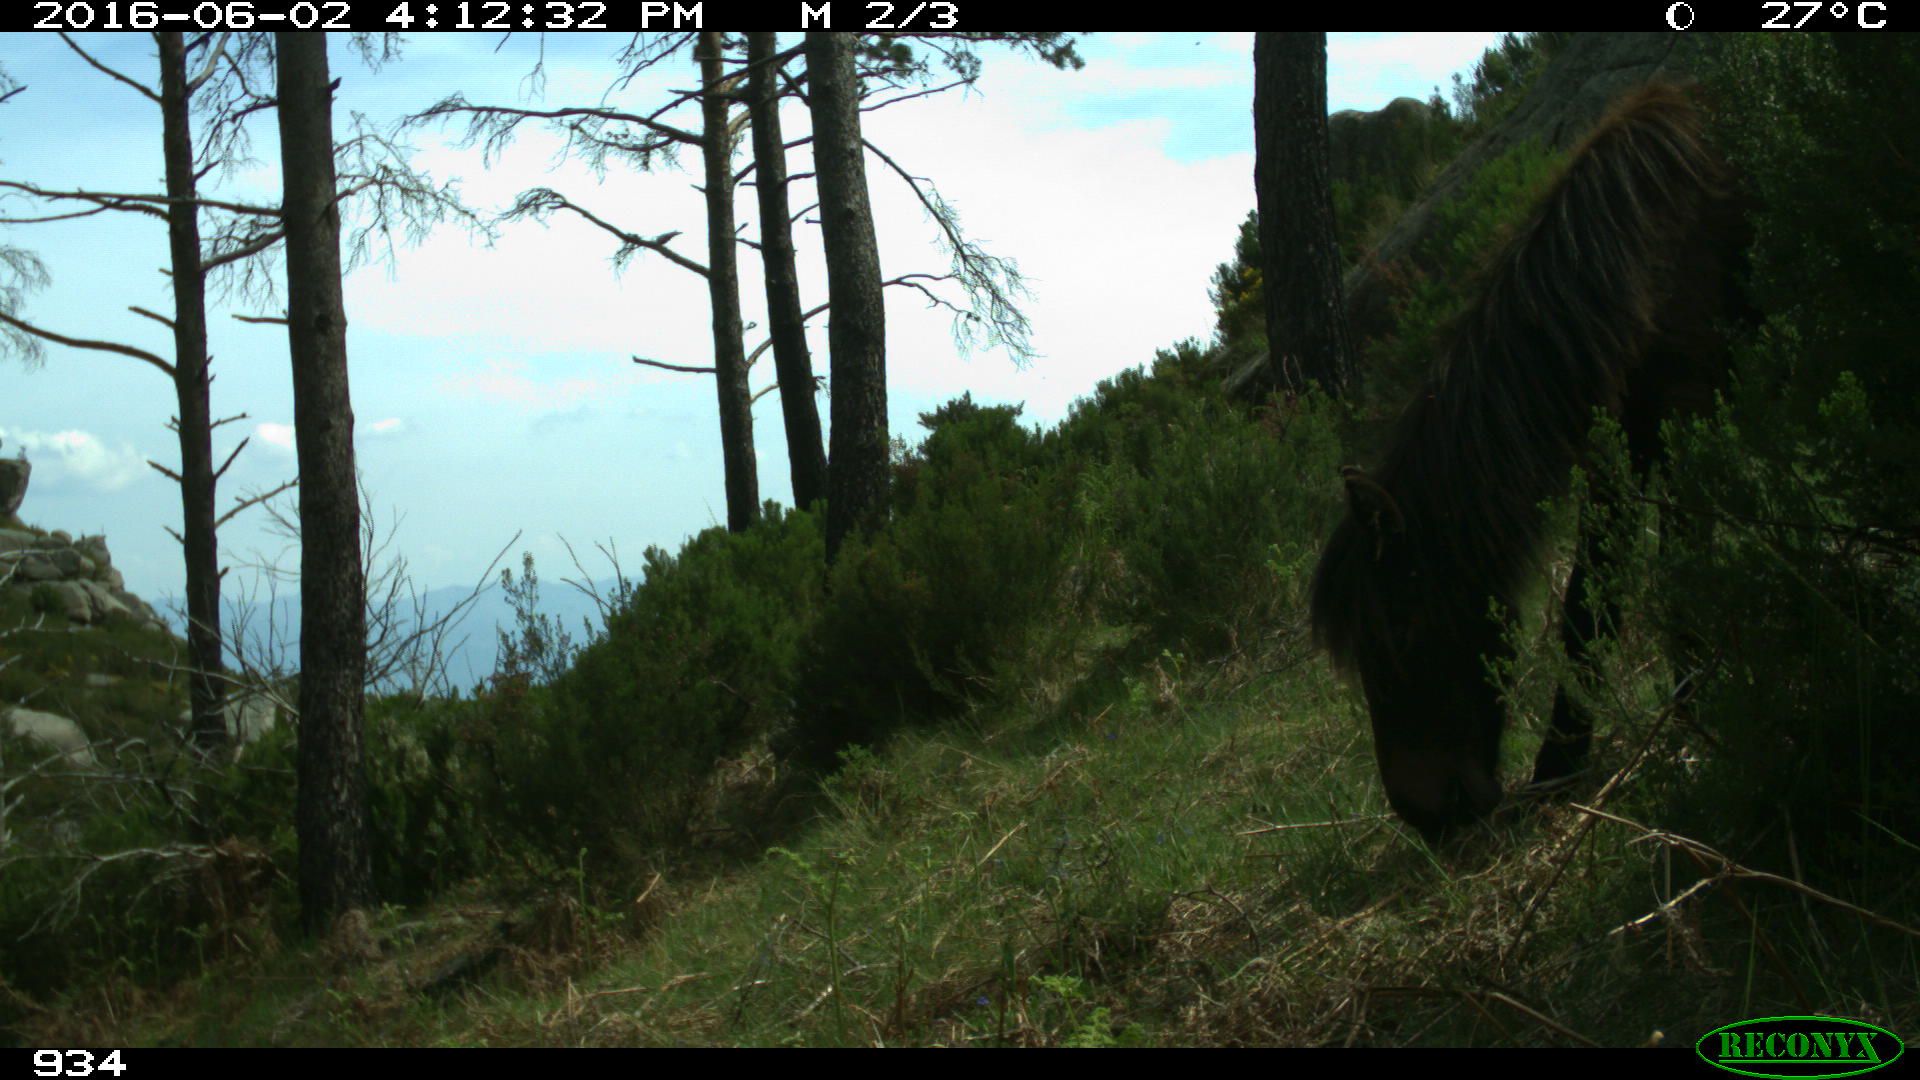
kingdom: Animalia
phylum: Chordata
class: Mammalia
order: Perissodactyla
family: Equidae
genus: Equus
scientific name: Equus caballus
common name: Horse
